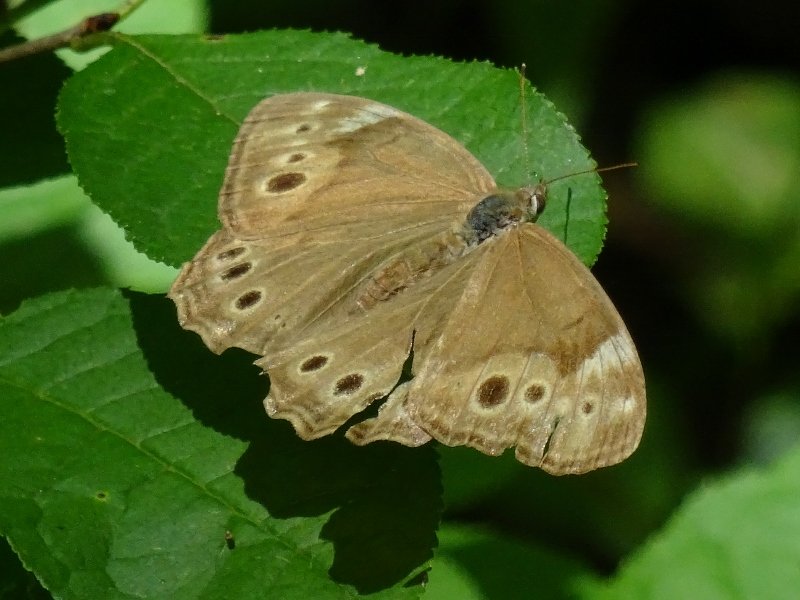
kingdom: Animalia
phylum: Arthropoda
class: Insecta
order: Lepidoptera
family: Nymphalidae
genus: Lethe
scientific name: Lethe anthedon
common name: Northern Pearly-Eye
